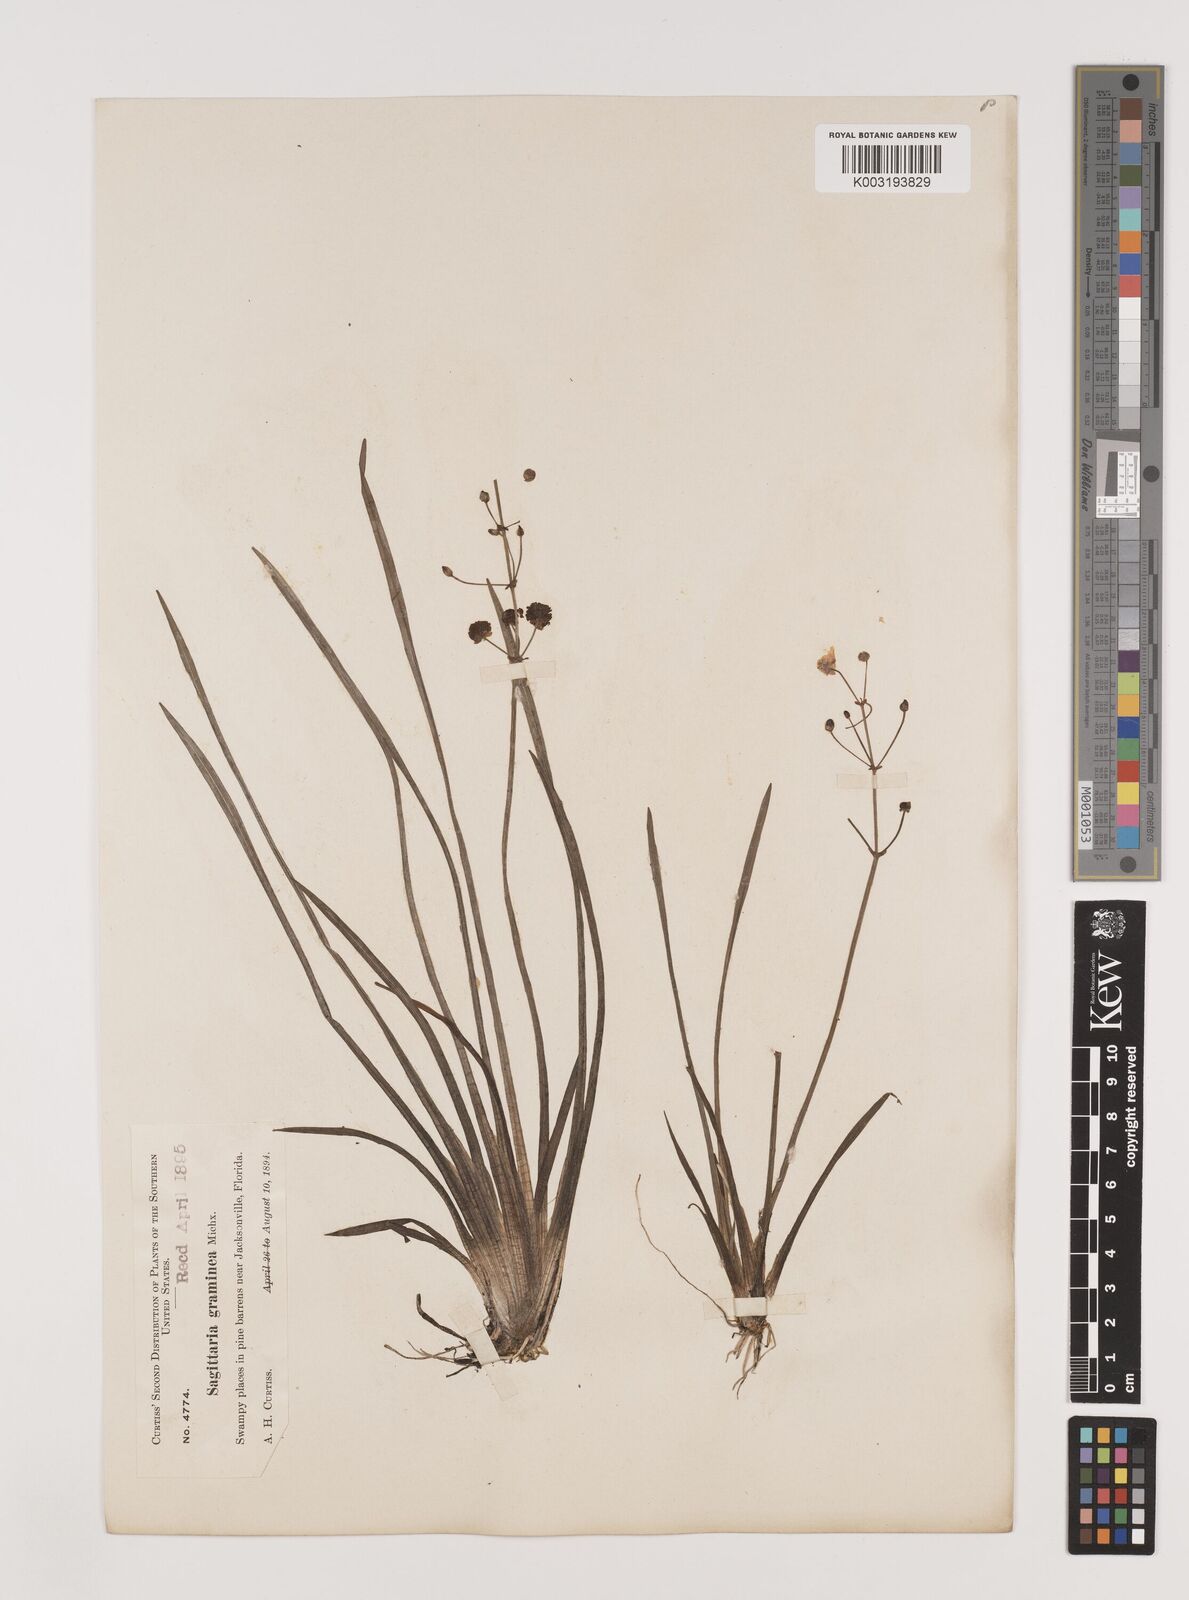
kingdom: Plantae
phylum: Tracheophyta
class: Liliopsida
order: Alismatales
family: Alismataceae
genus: Sagittaria
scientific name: Sagittaria graminea
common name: Grass-leaved arrowhead
